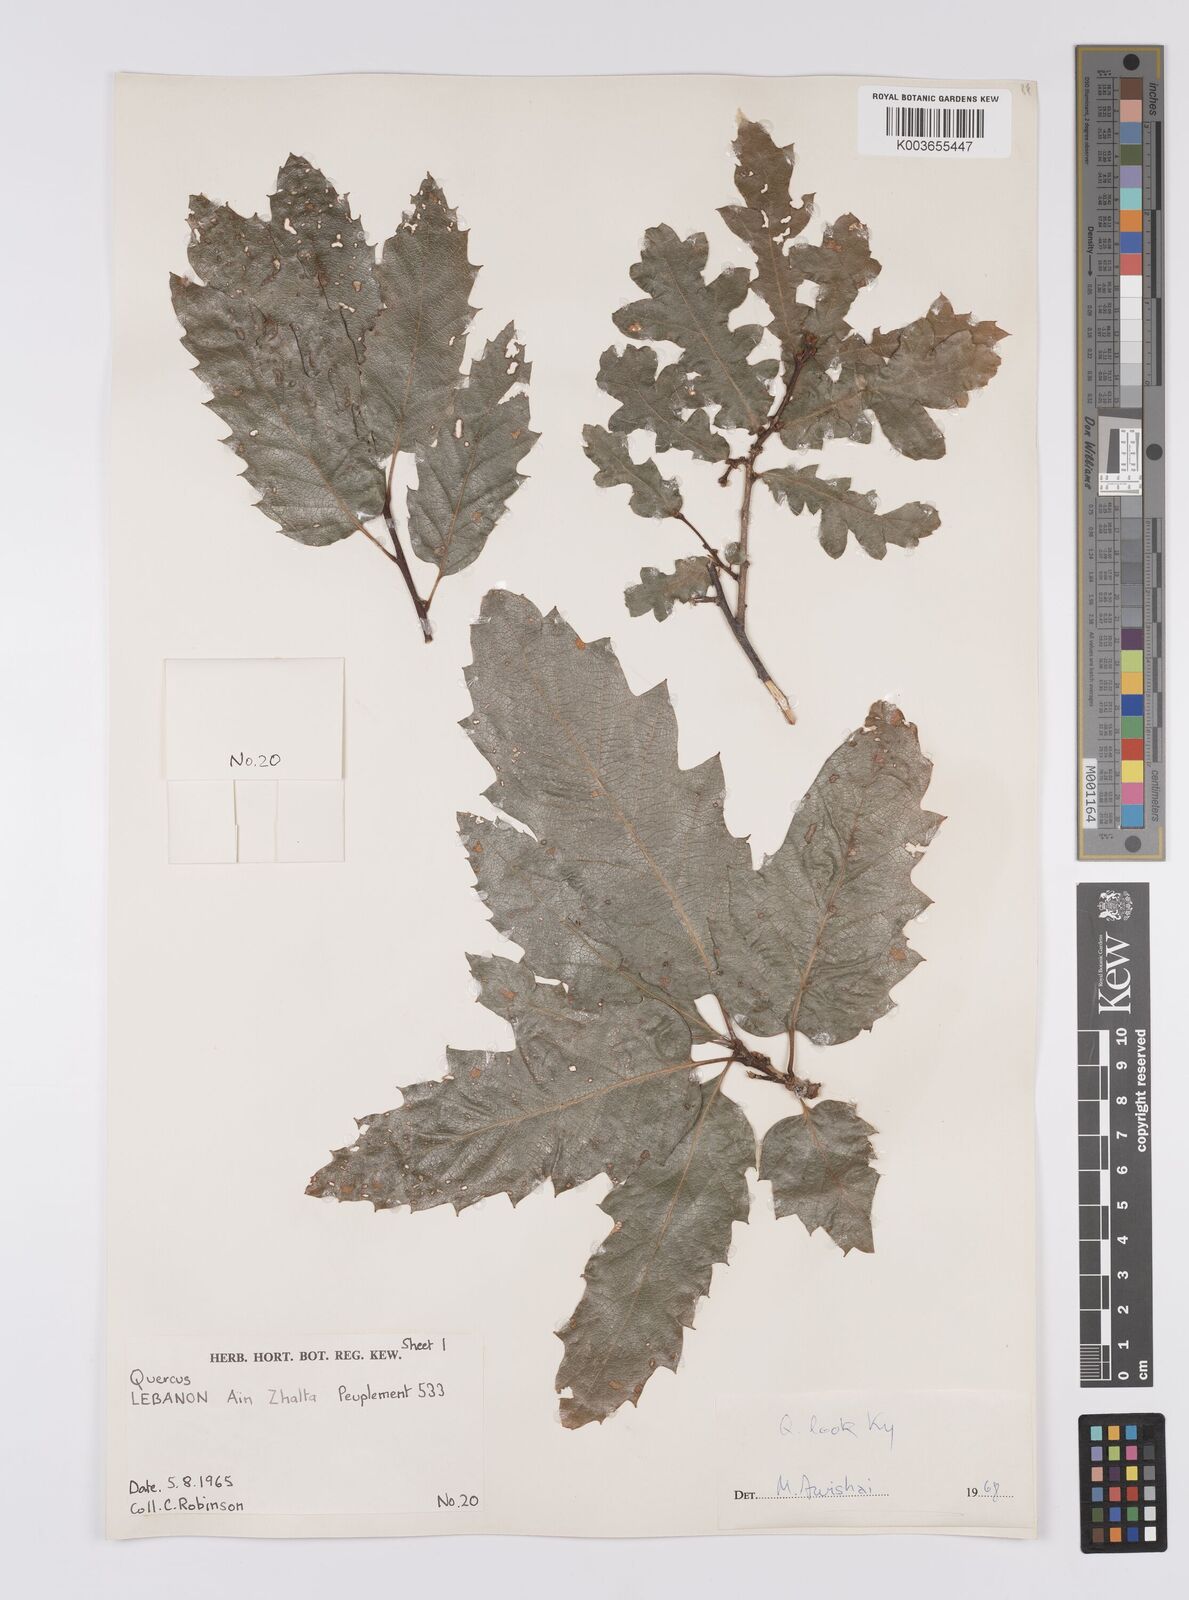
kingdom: Plantae
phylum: Tracheophyta
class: Magnoliopsida
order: Fagales
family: Fagaceae
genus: Quercus
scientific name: Quercus look
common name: Look oak
